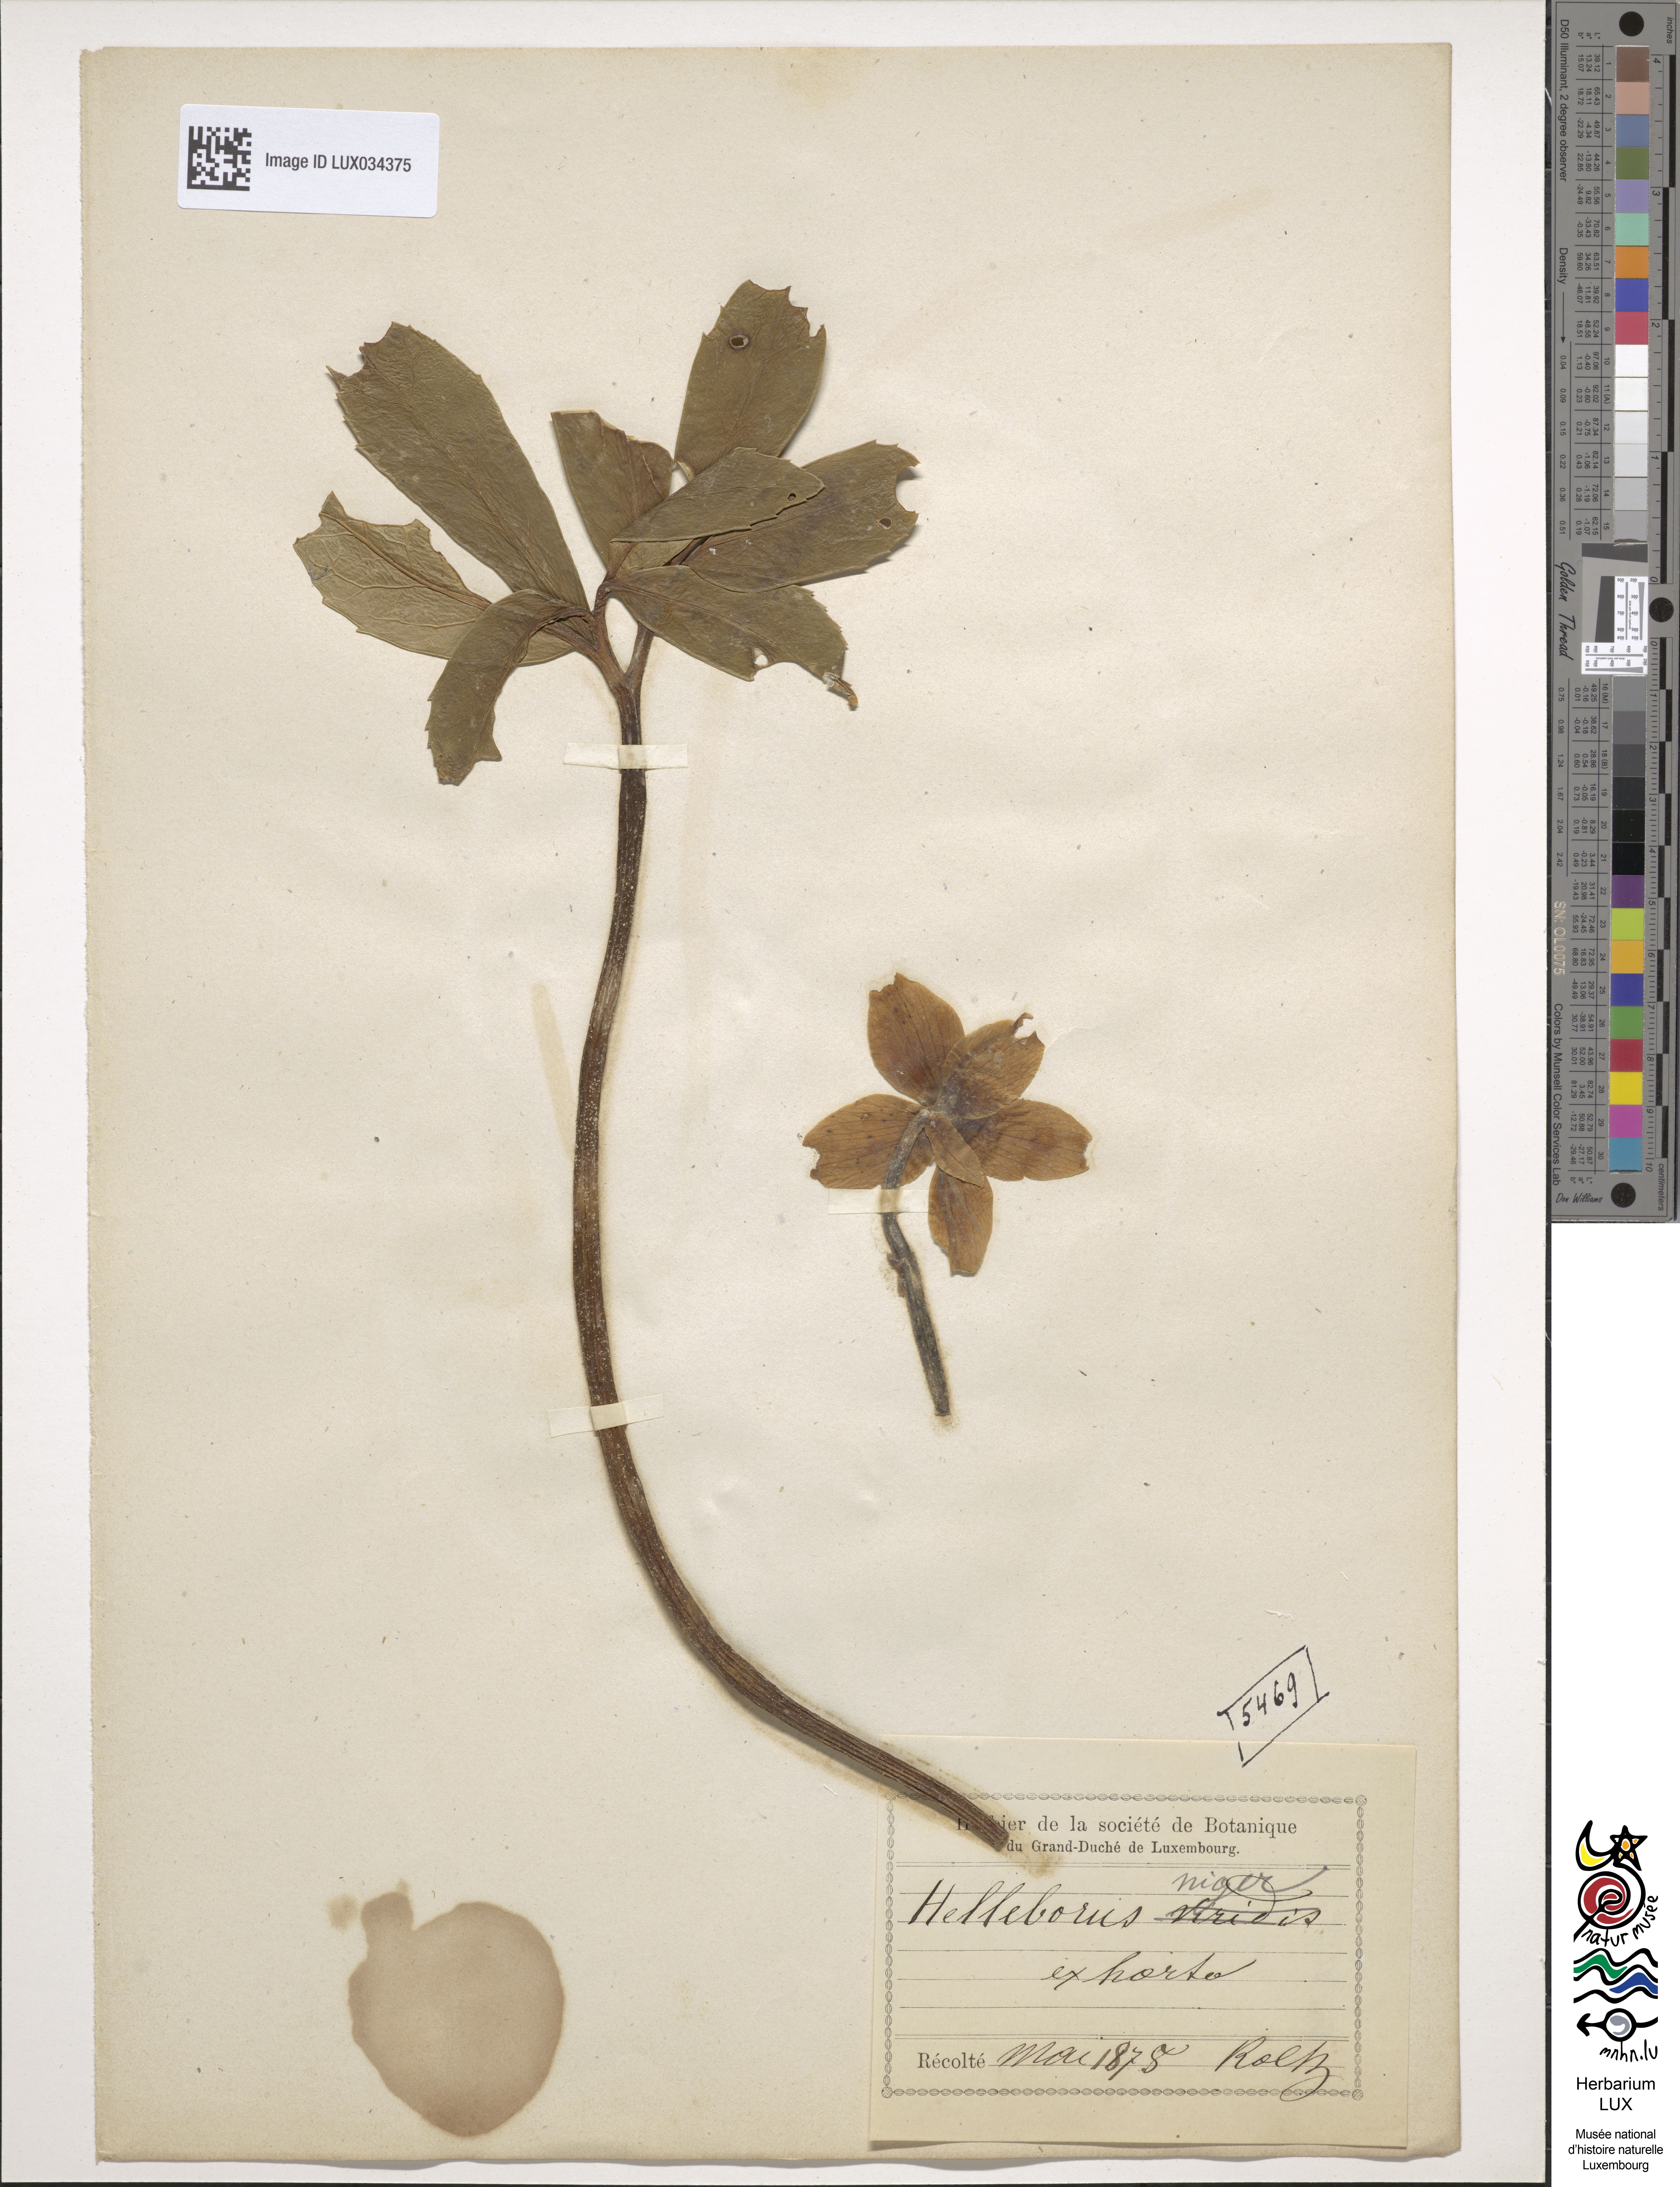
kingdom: Plantae
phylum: Tracheophyta
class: Magnoliopsida
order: Ranunculales
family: Ranunculaceae
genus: Helleborus
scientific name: Helleborus niger
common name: Black hellebore
